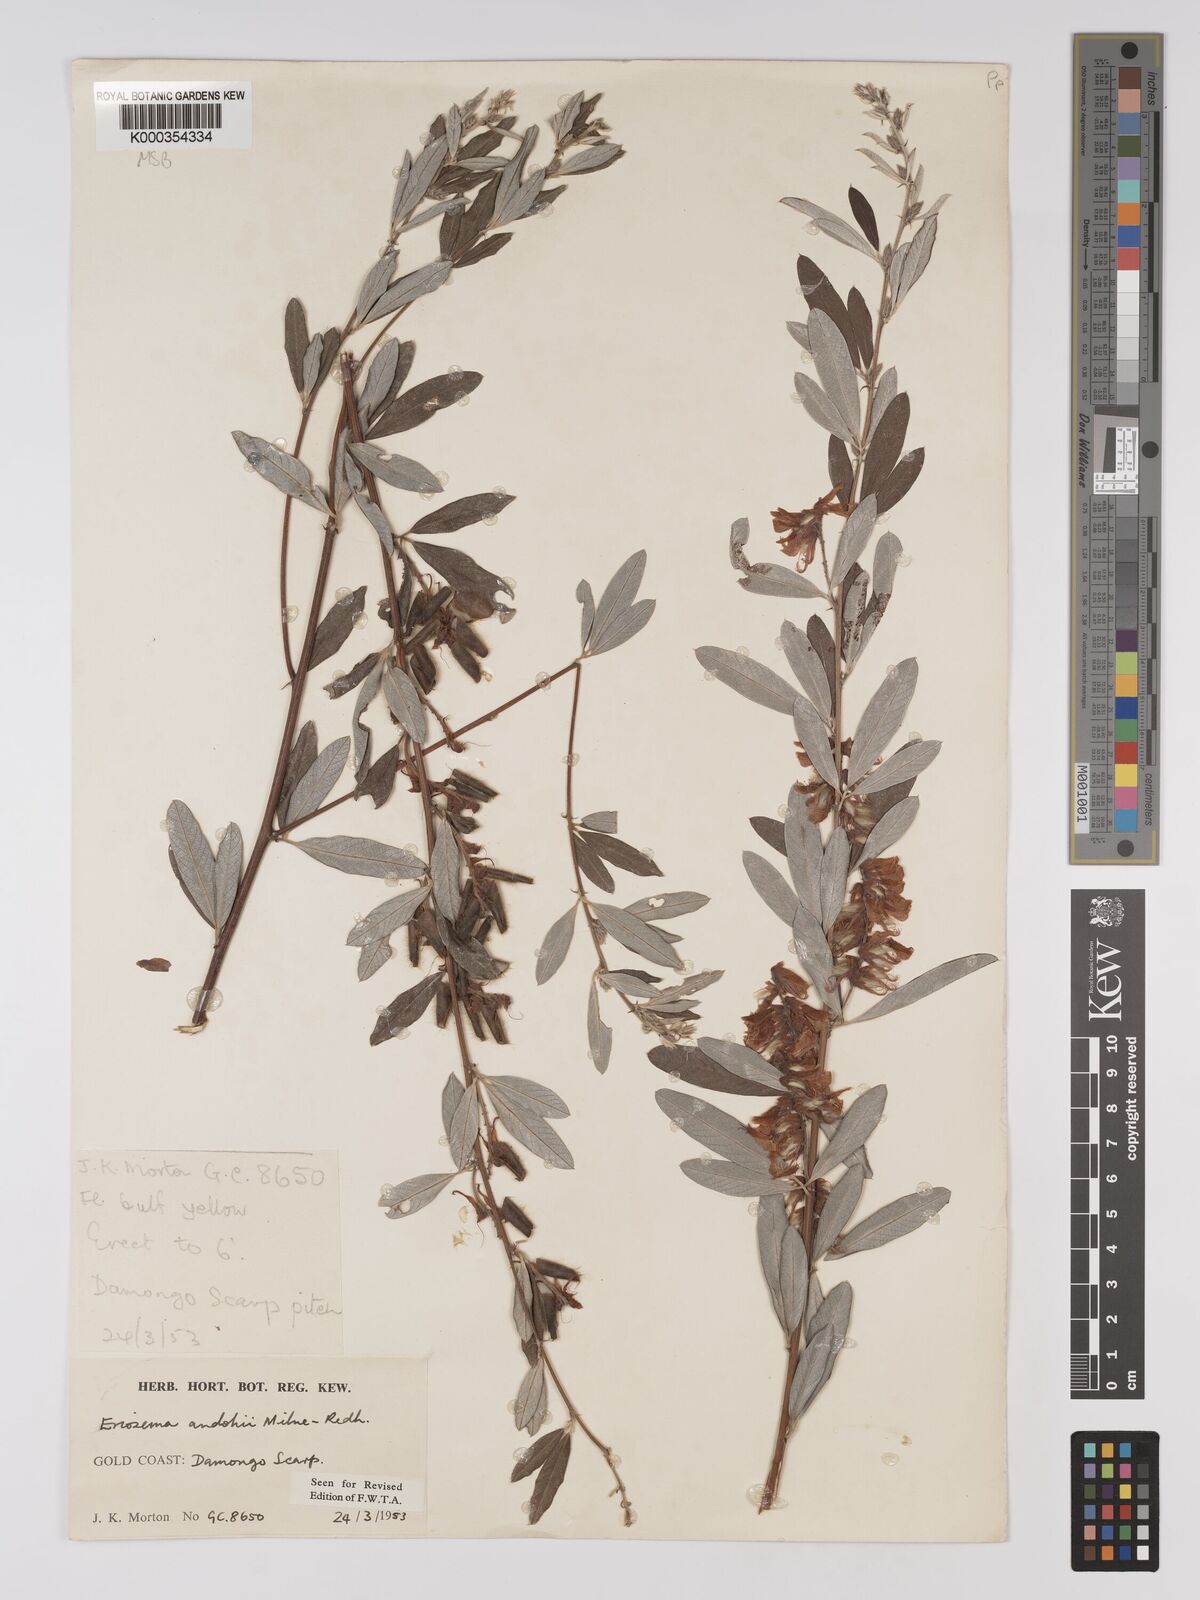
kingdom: Plantae
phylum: Tracheophyta
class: Magnoliopsida
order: Fabales
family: Fabaceae
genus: Eriosema
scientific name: Eriosema andohii
